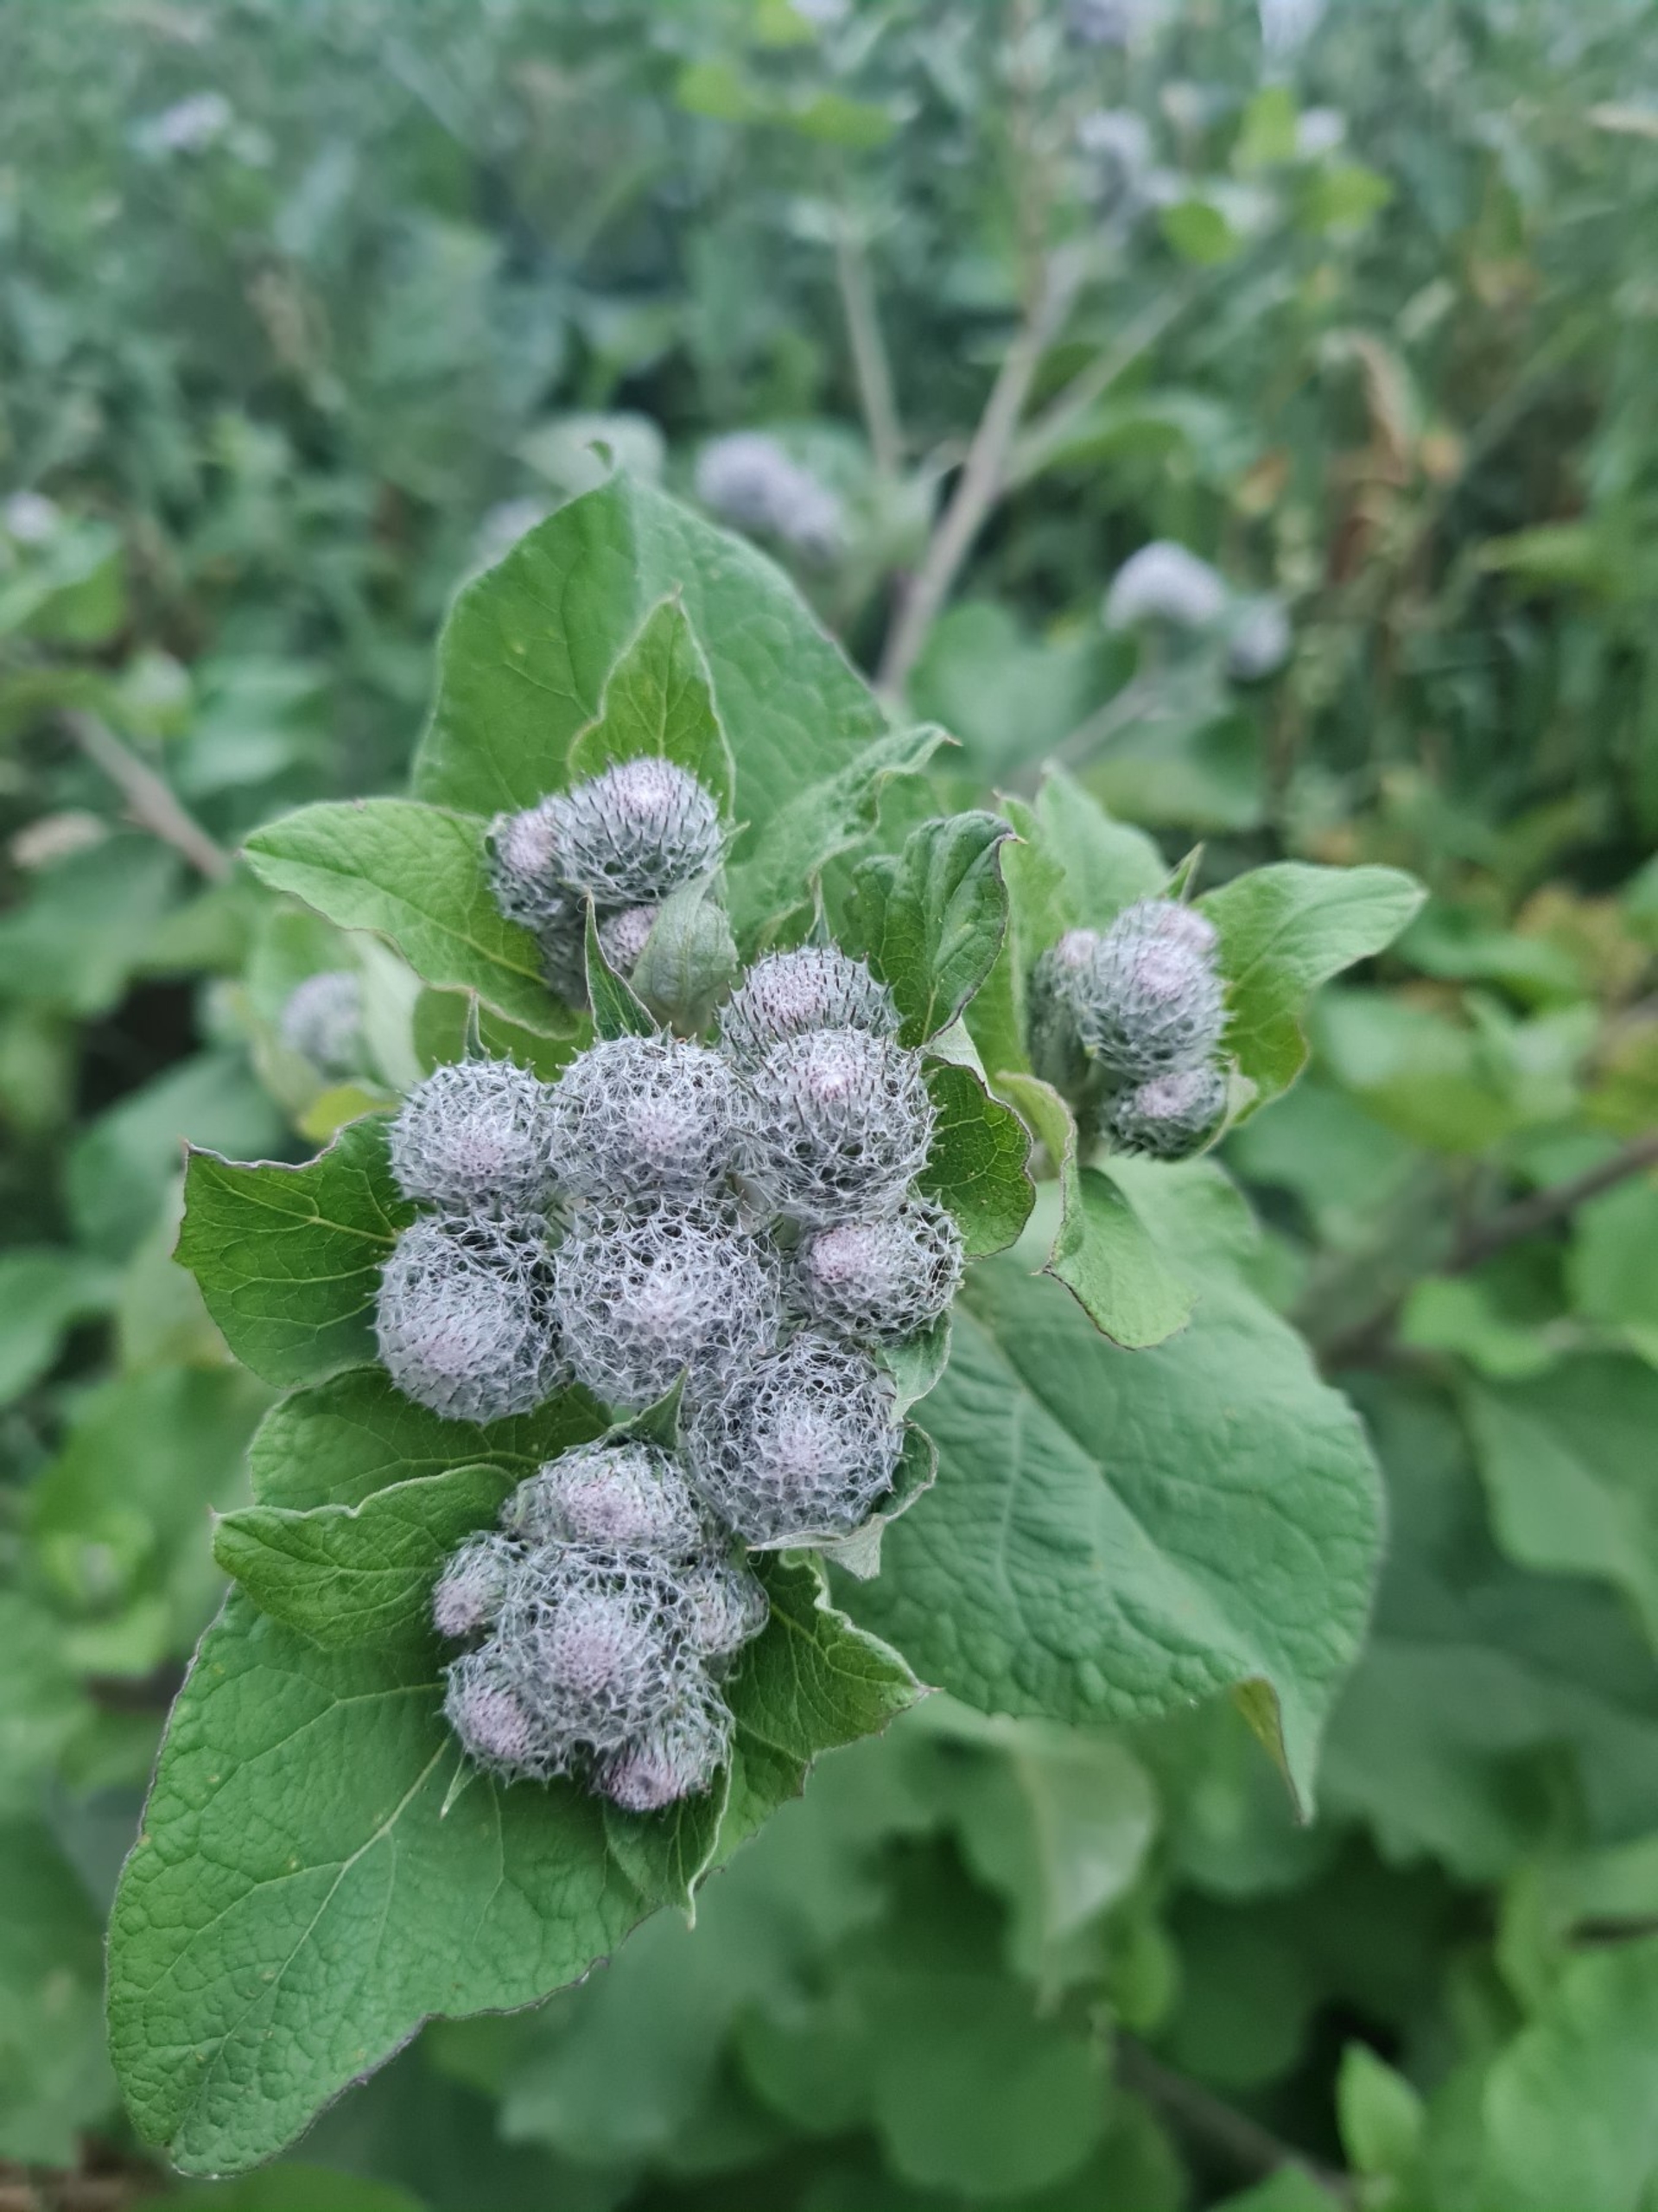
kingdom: Plantae
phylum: Tracheophyta
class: Magnoliopsida
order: Asterales
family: Asteraceae
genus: Arctium
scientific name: Arctium tomentosum
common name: Filtet burre
